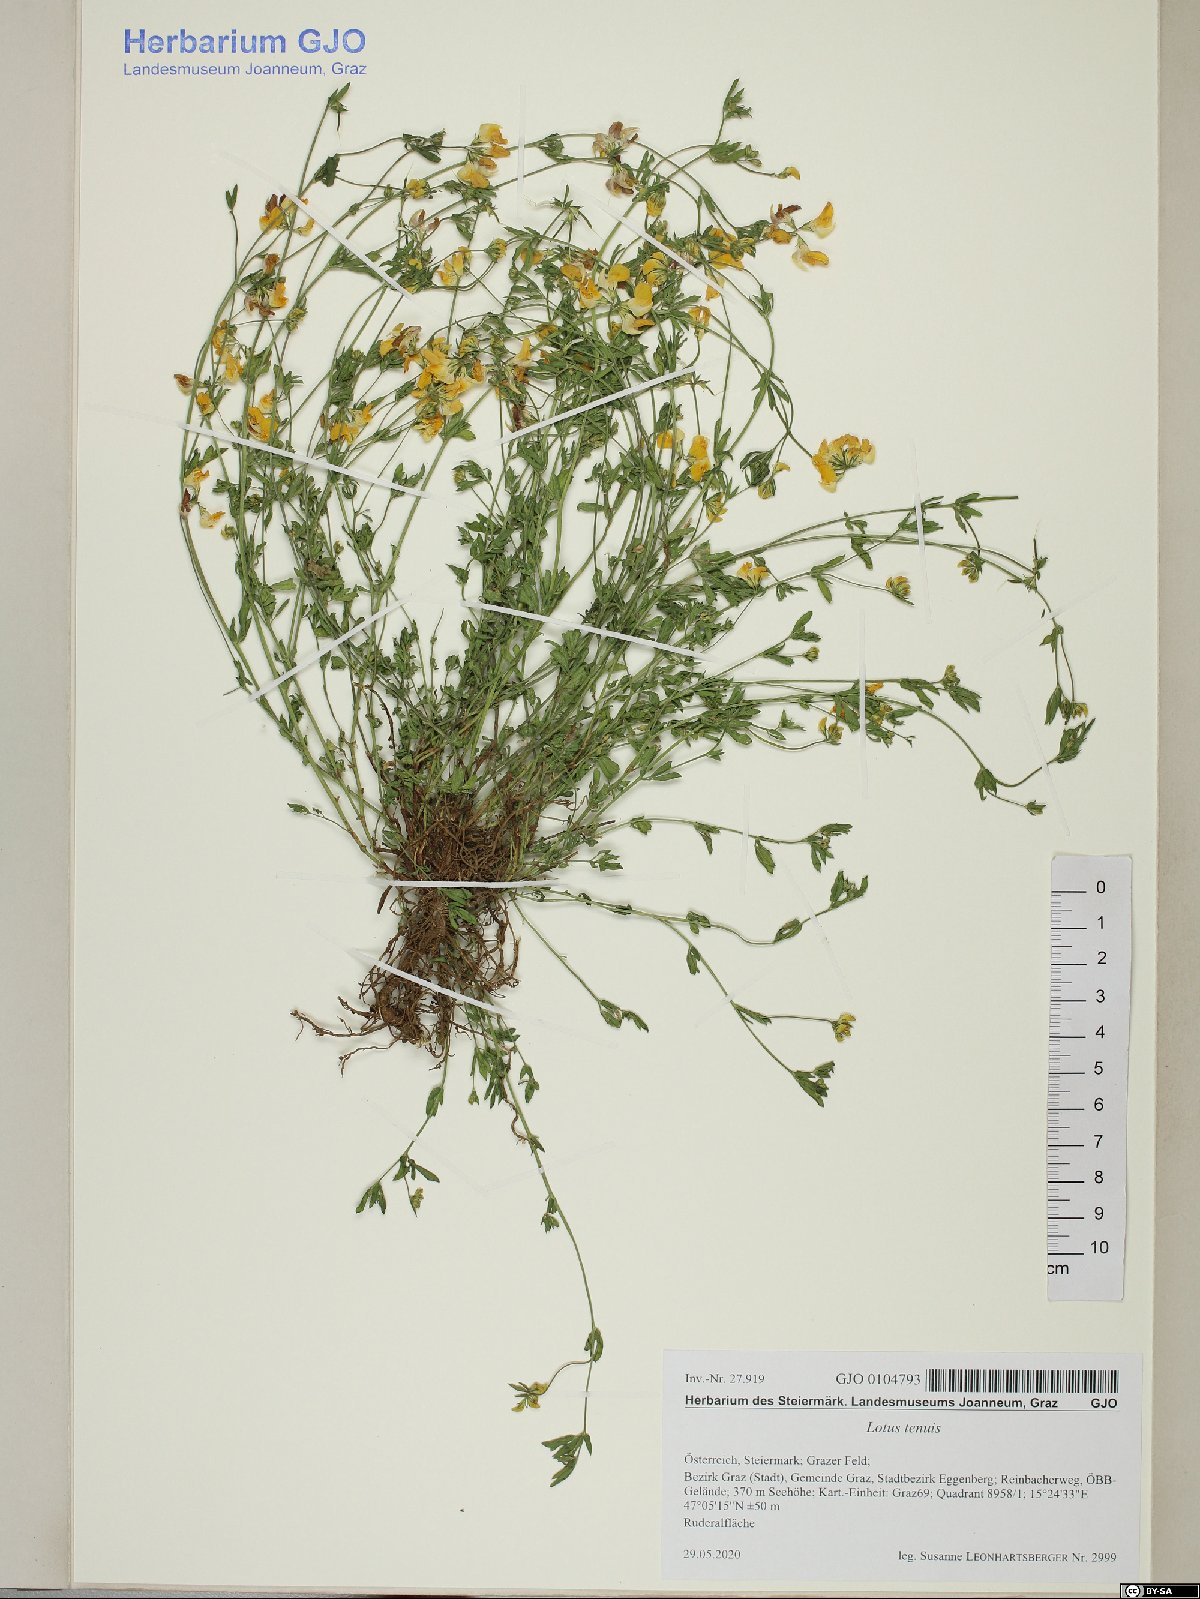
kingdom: Plantae
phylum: Tracheophyta
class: Magnoliopsida
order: Fabales
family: Fabaceae
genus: Lotus
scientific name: Lotus tenuis
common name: Narrow-leaved bird's-foot-trefoil
